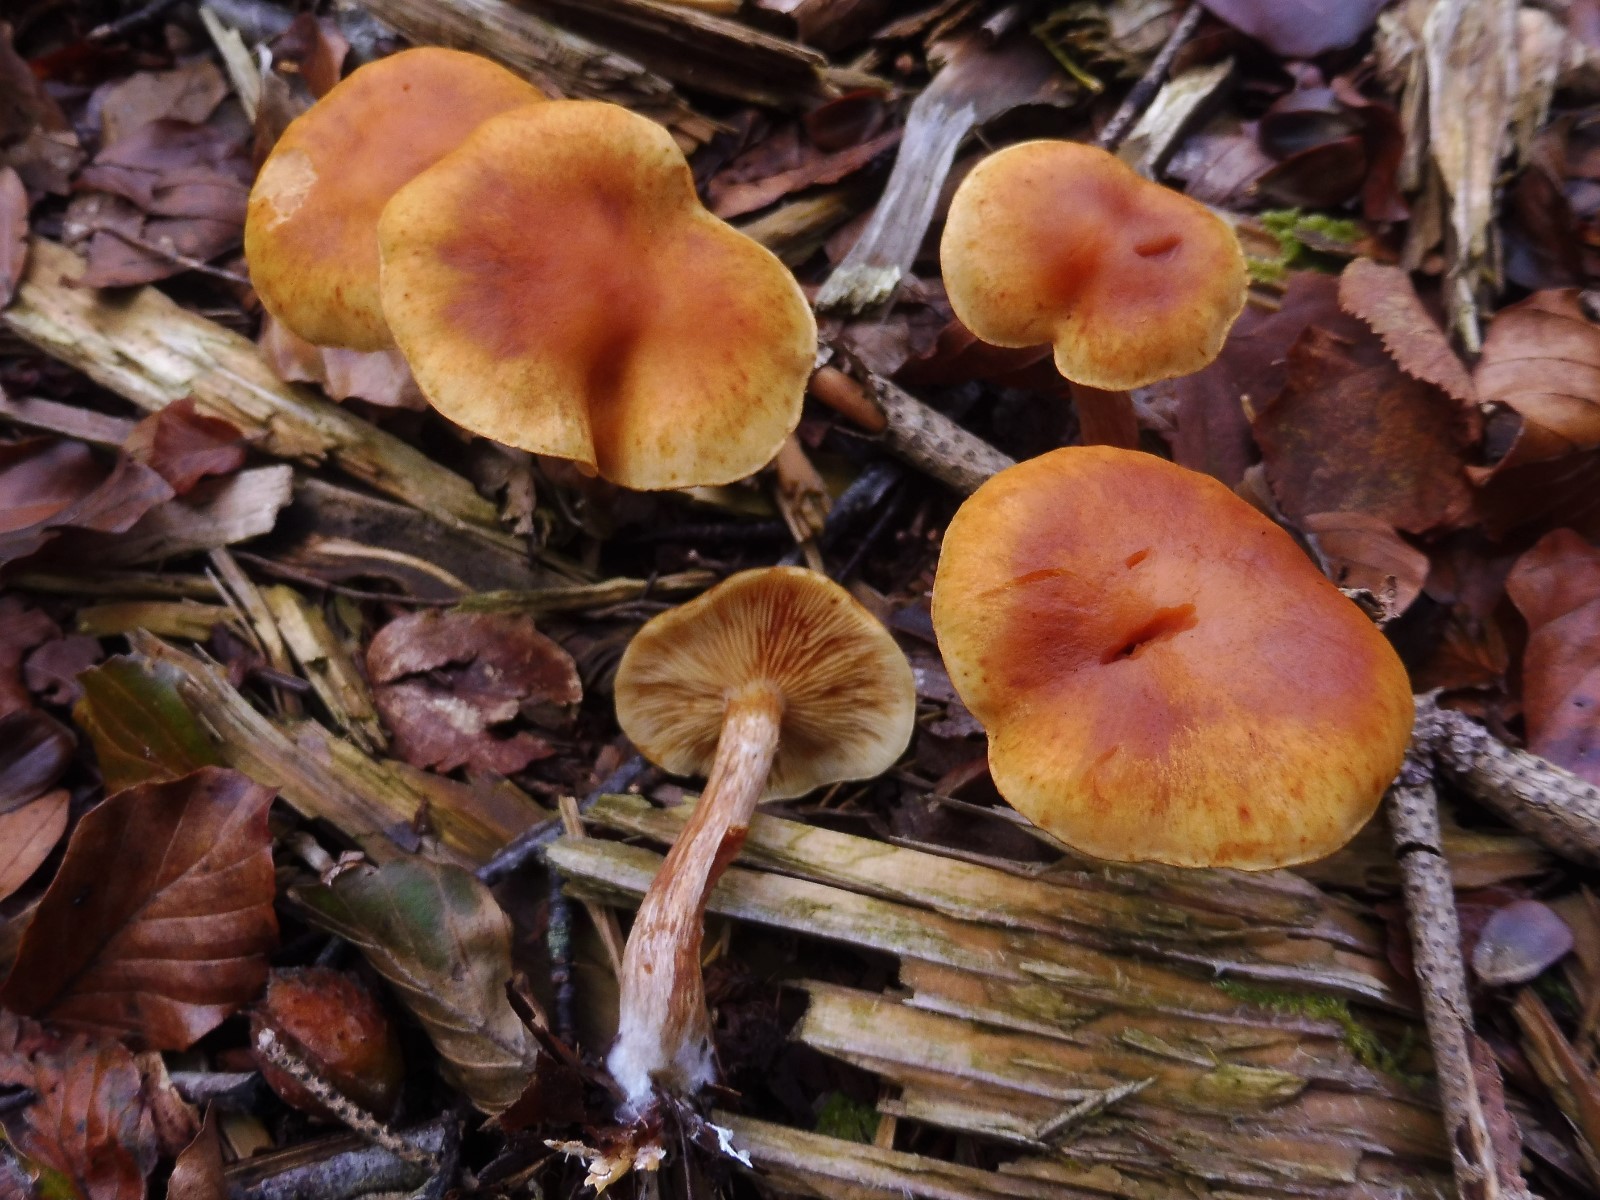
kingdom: Fungi
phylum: Basidiomycota
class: Agaricomycetes
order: Agaricales
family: Hymenogastraceae
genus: Gymnopilus
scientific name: Gymnopilus penetrans
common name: plettet flammehat
